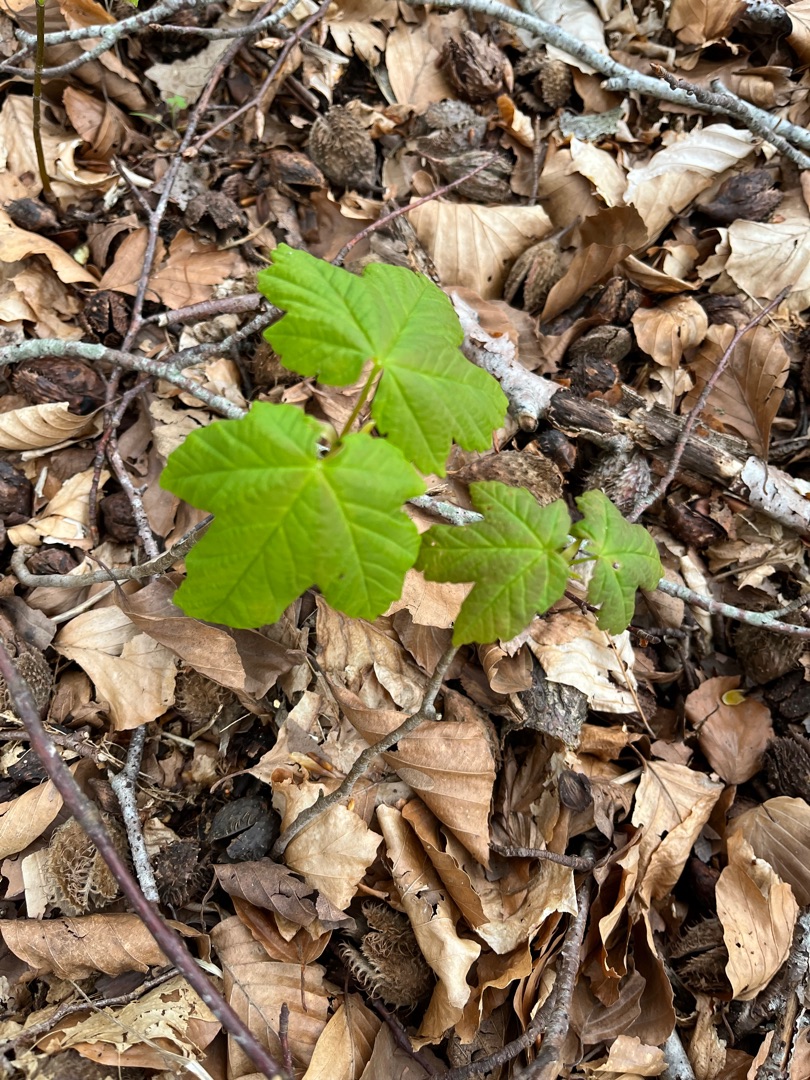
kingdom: Plantae
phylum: Tracheophyta
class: Magnoliopsida
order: Sapindales
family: Sapindaceae
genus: Acer
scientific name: Acer pseudoplatanus
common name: Ahorn
